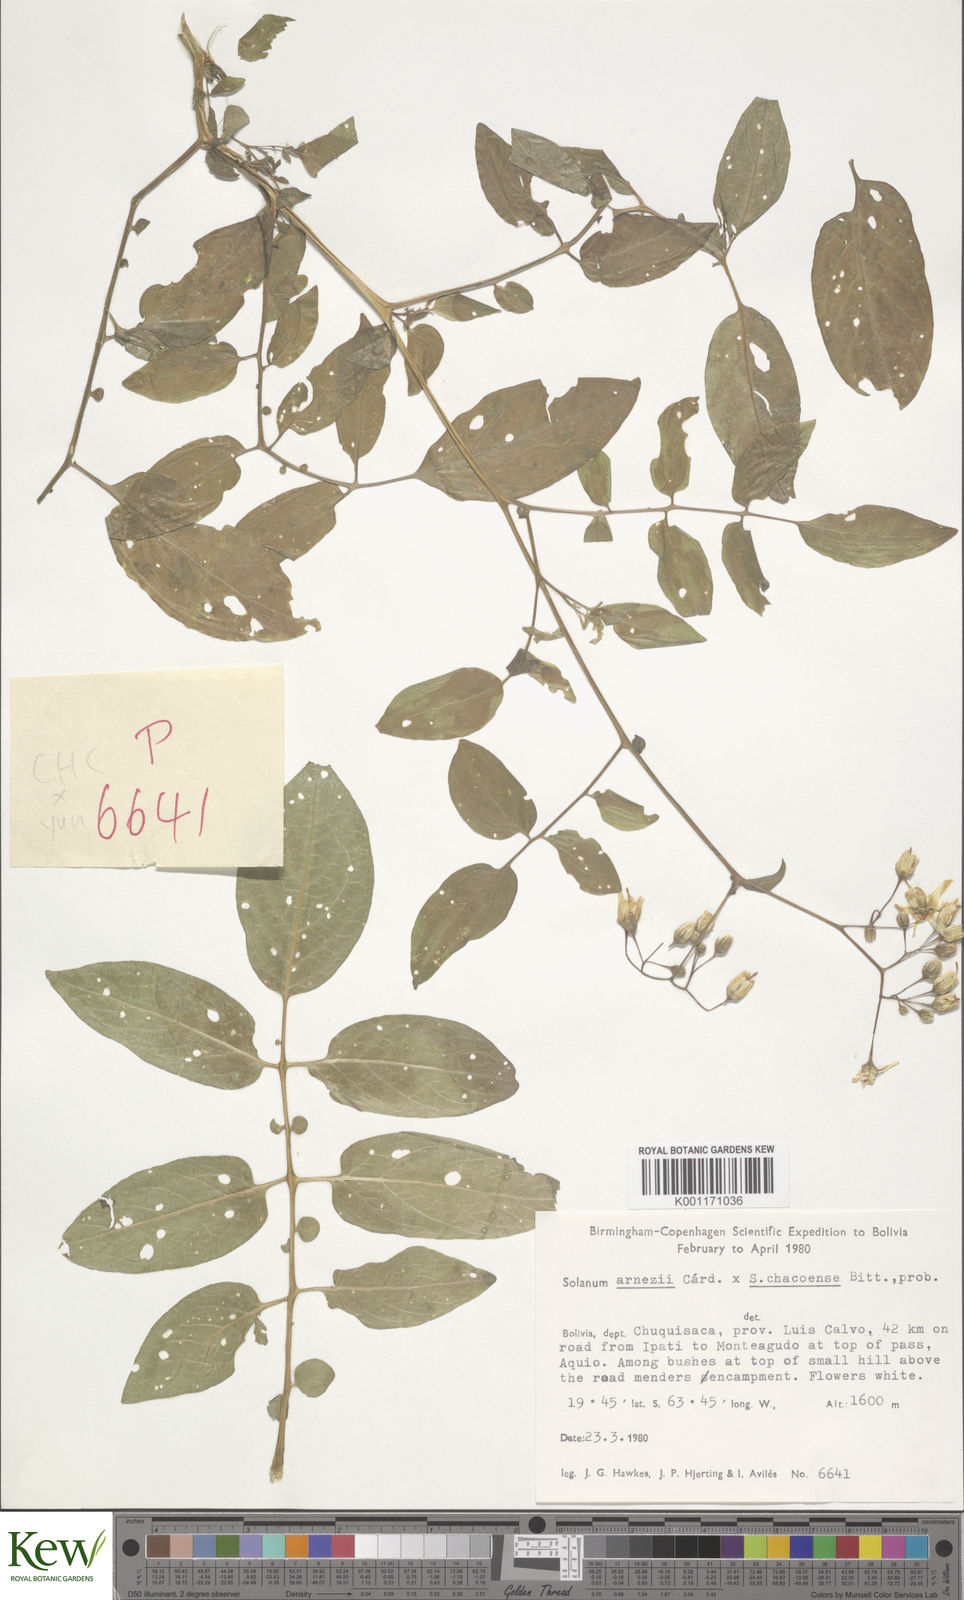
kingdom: Plantae
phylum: Tracheophyta
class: Magnoliopsida
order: Solanales
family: Solanaceae
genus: Solanum
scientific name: Solanum
